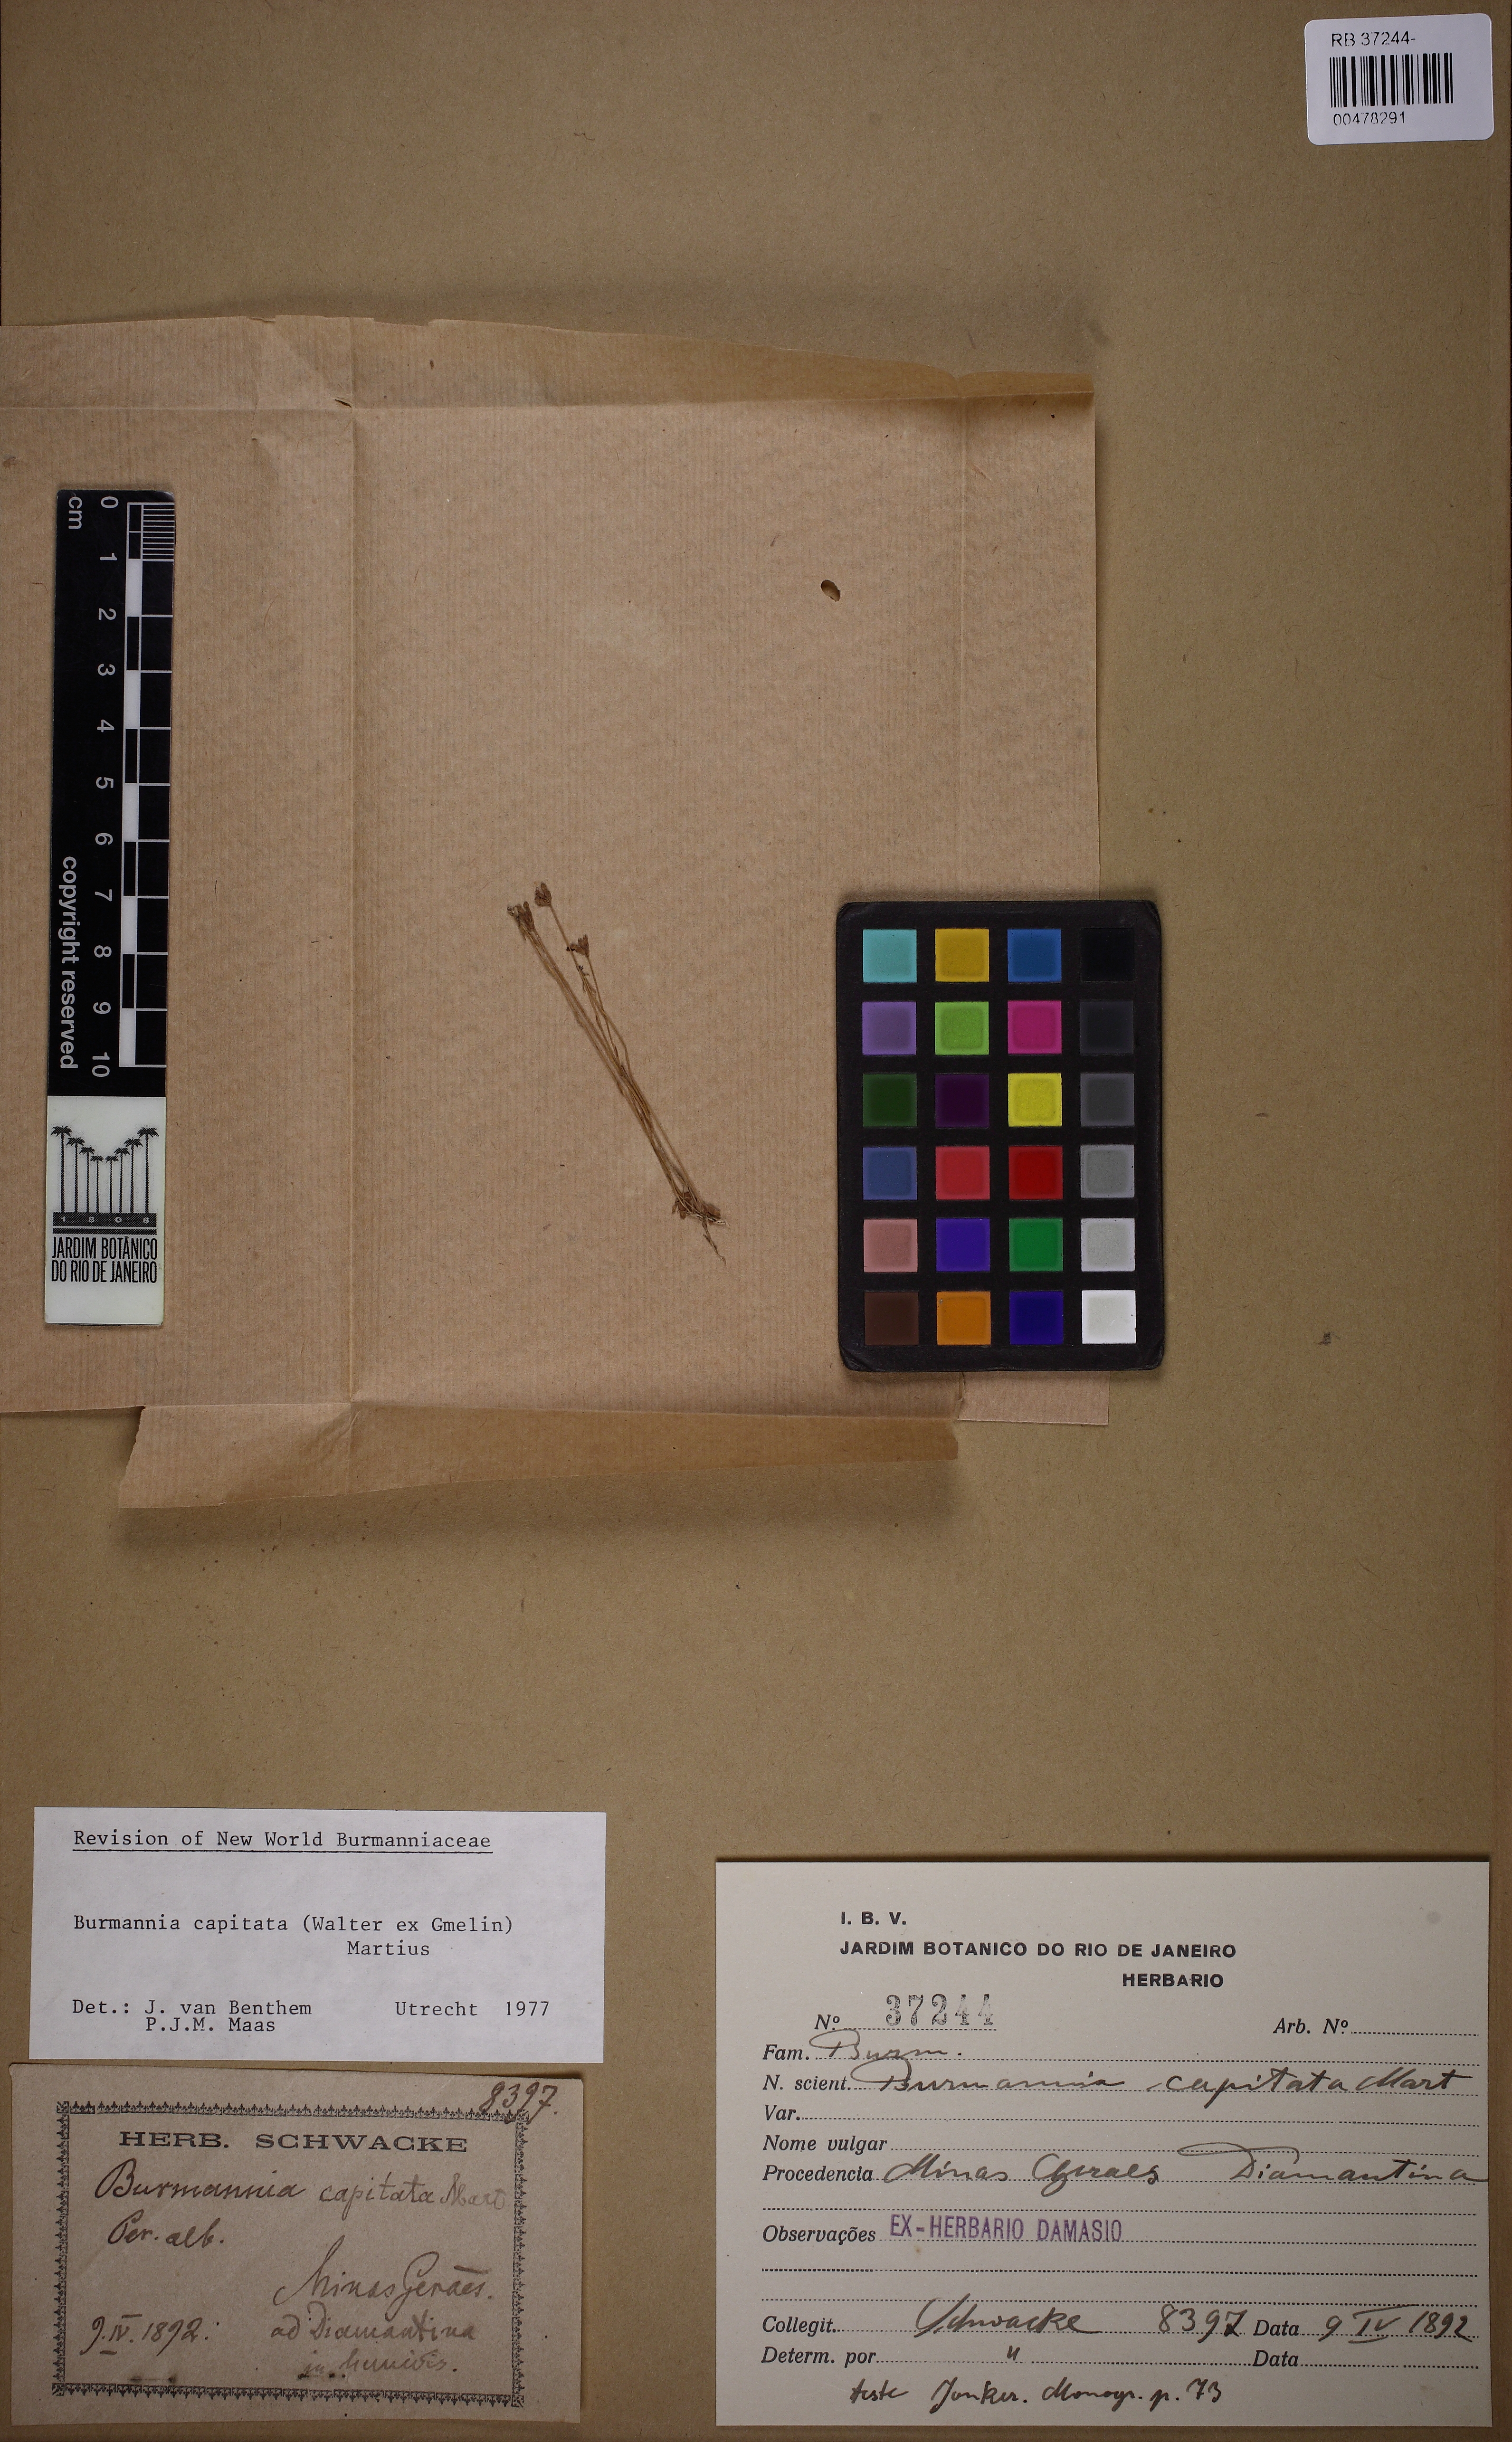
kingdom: Plantae
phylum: Tracheophyta
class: Liliopsida
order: Dioscoreales
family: Burmanniaceae
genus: Burmannia
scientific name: Burmannia capitata
